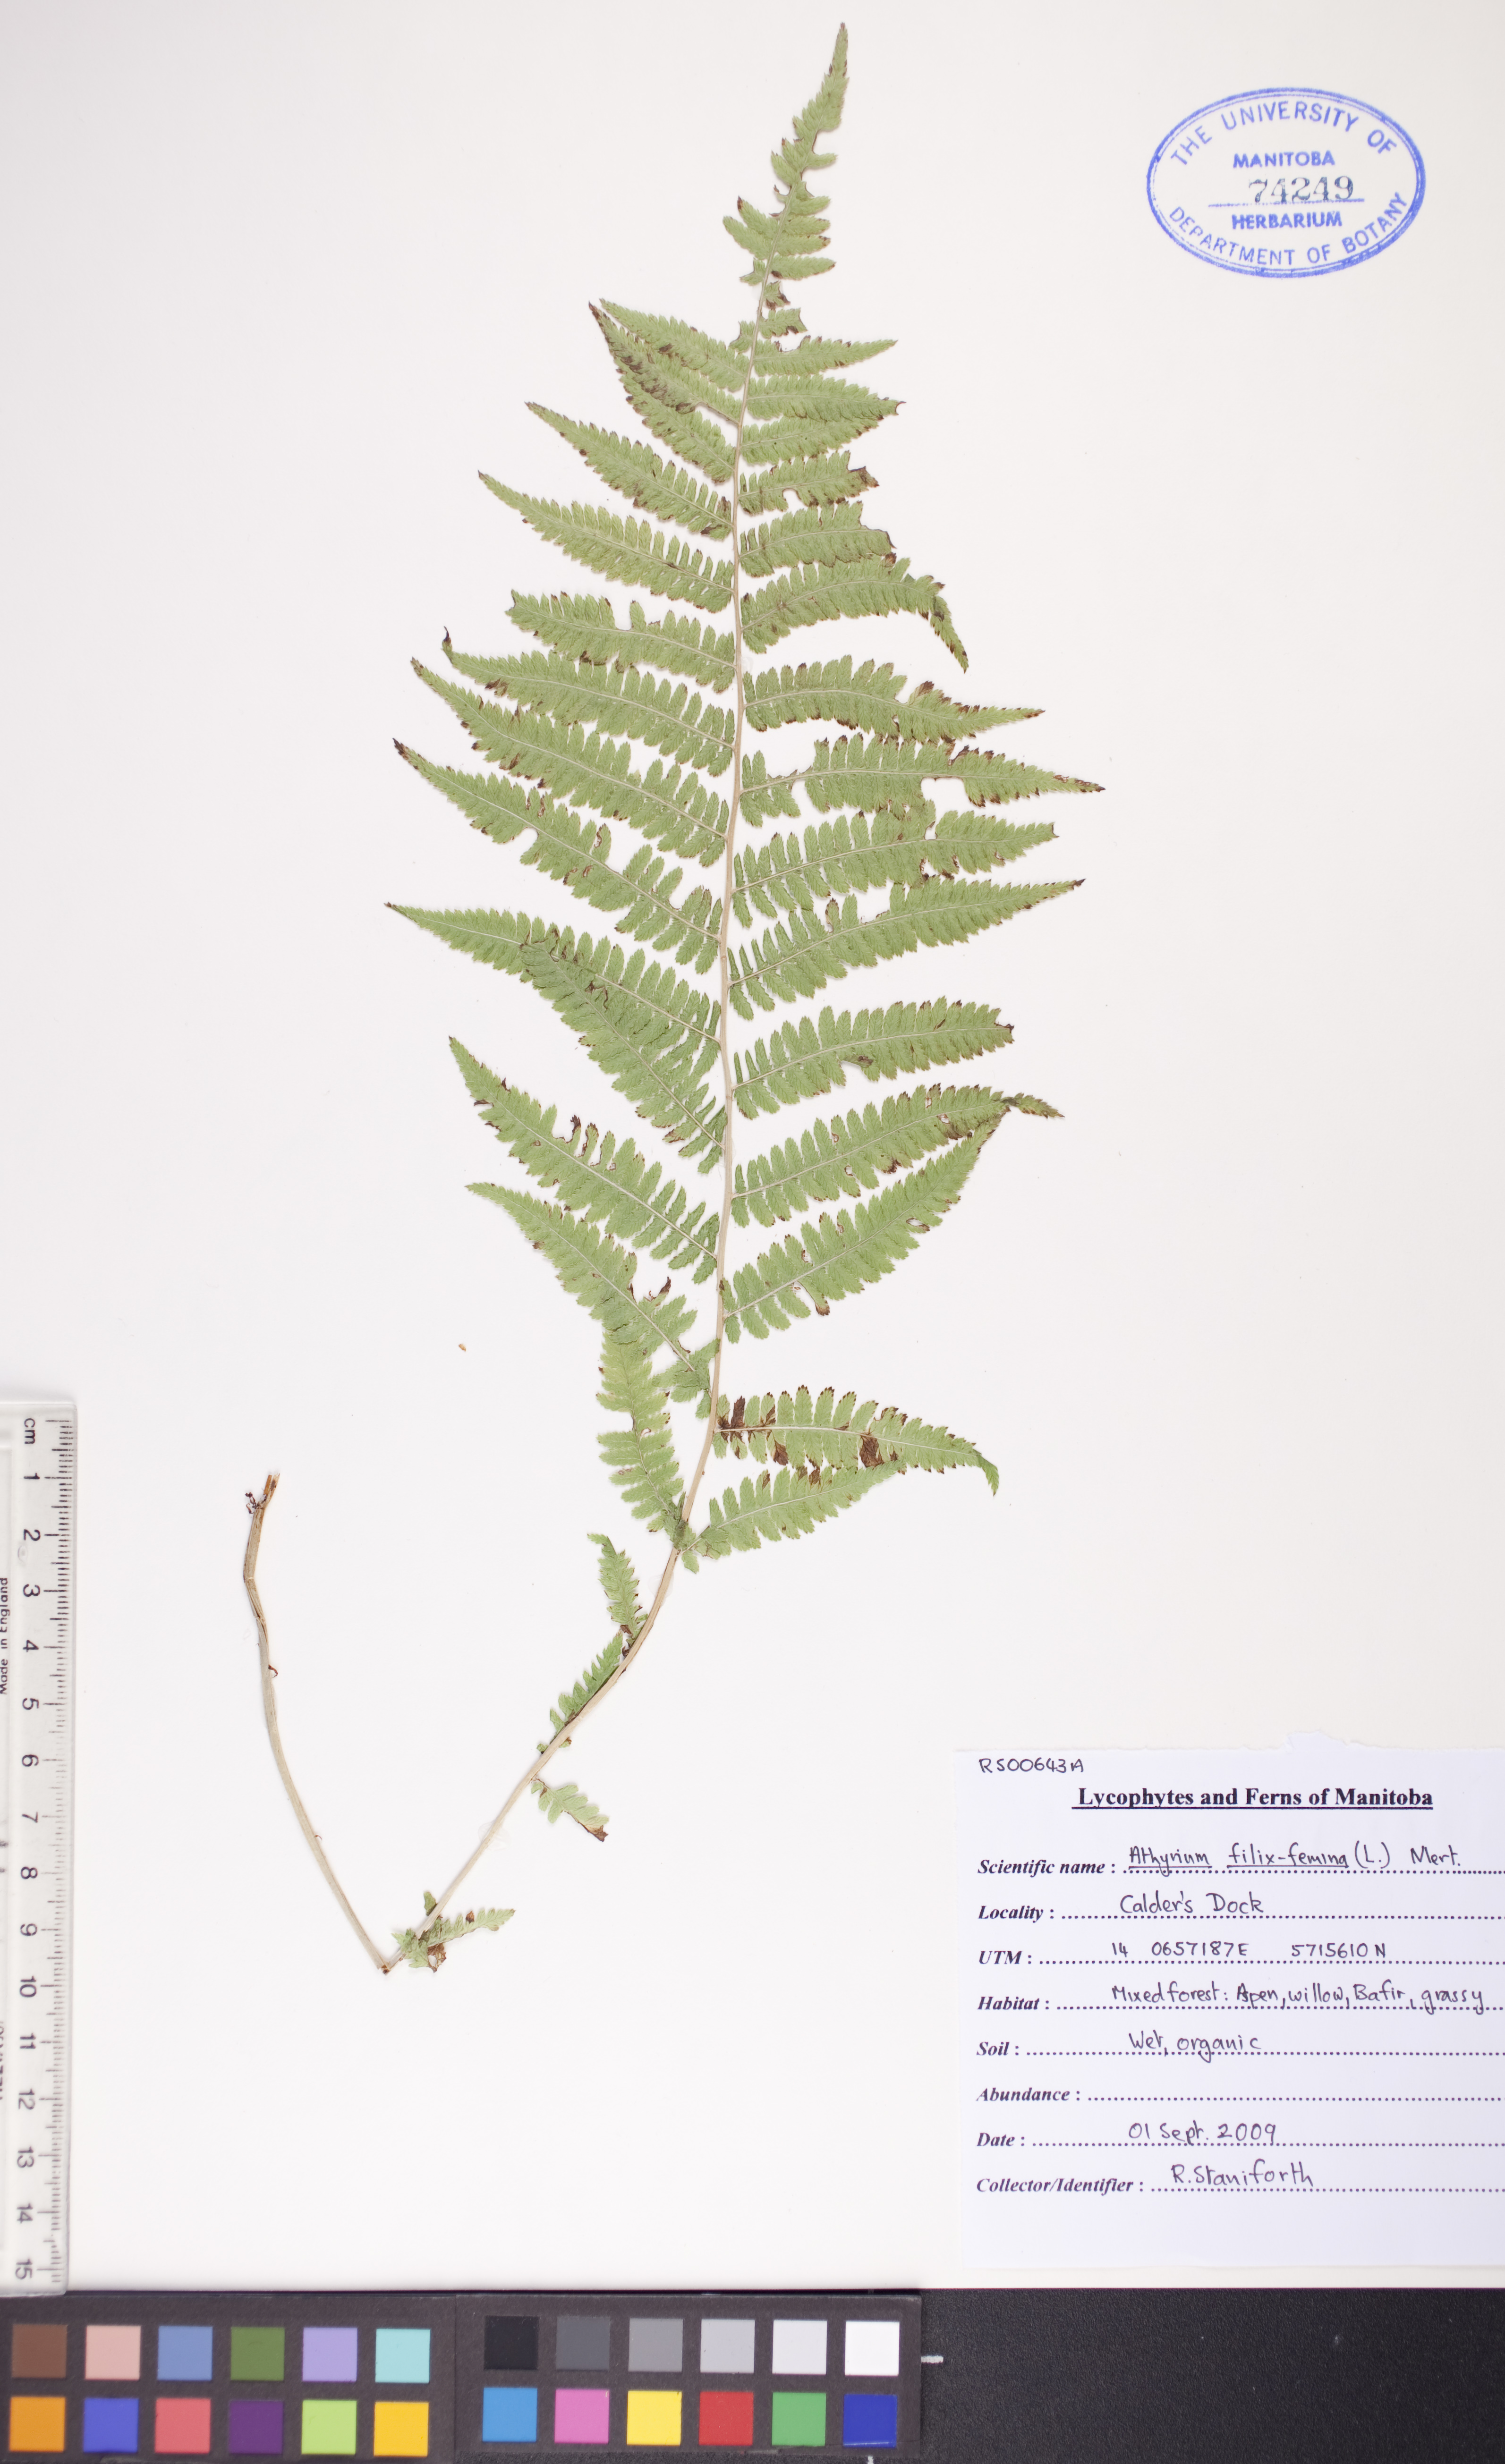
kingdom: Plantae
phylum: Tracheophyta
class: Polypodiopsida
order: Polypodiales
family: Athyriaceae
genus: Athyrium
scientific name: Athyrium filix-femina
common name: Lady fern
